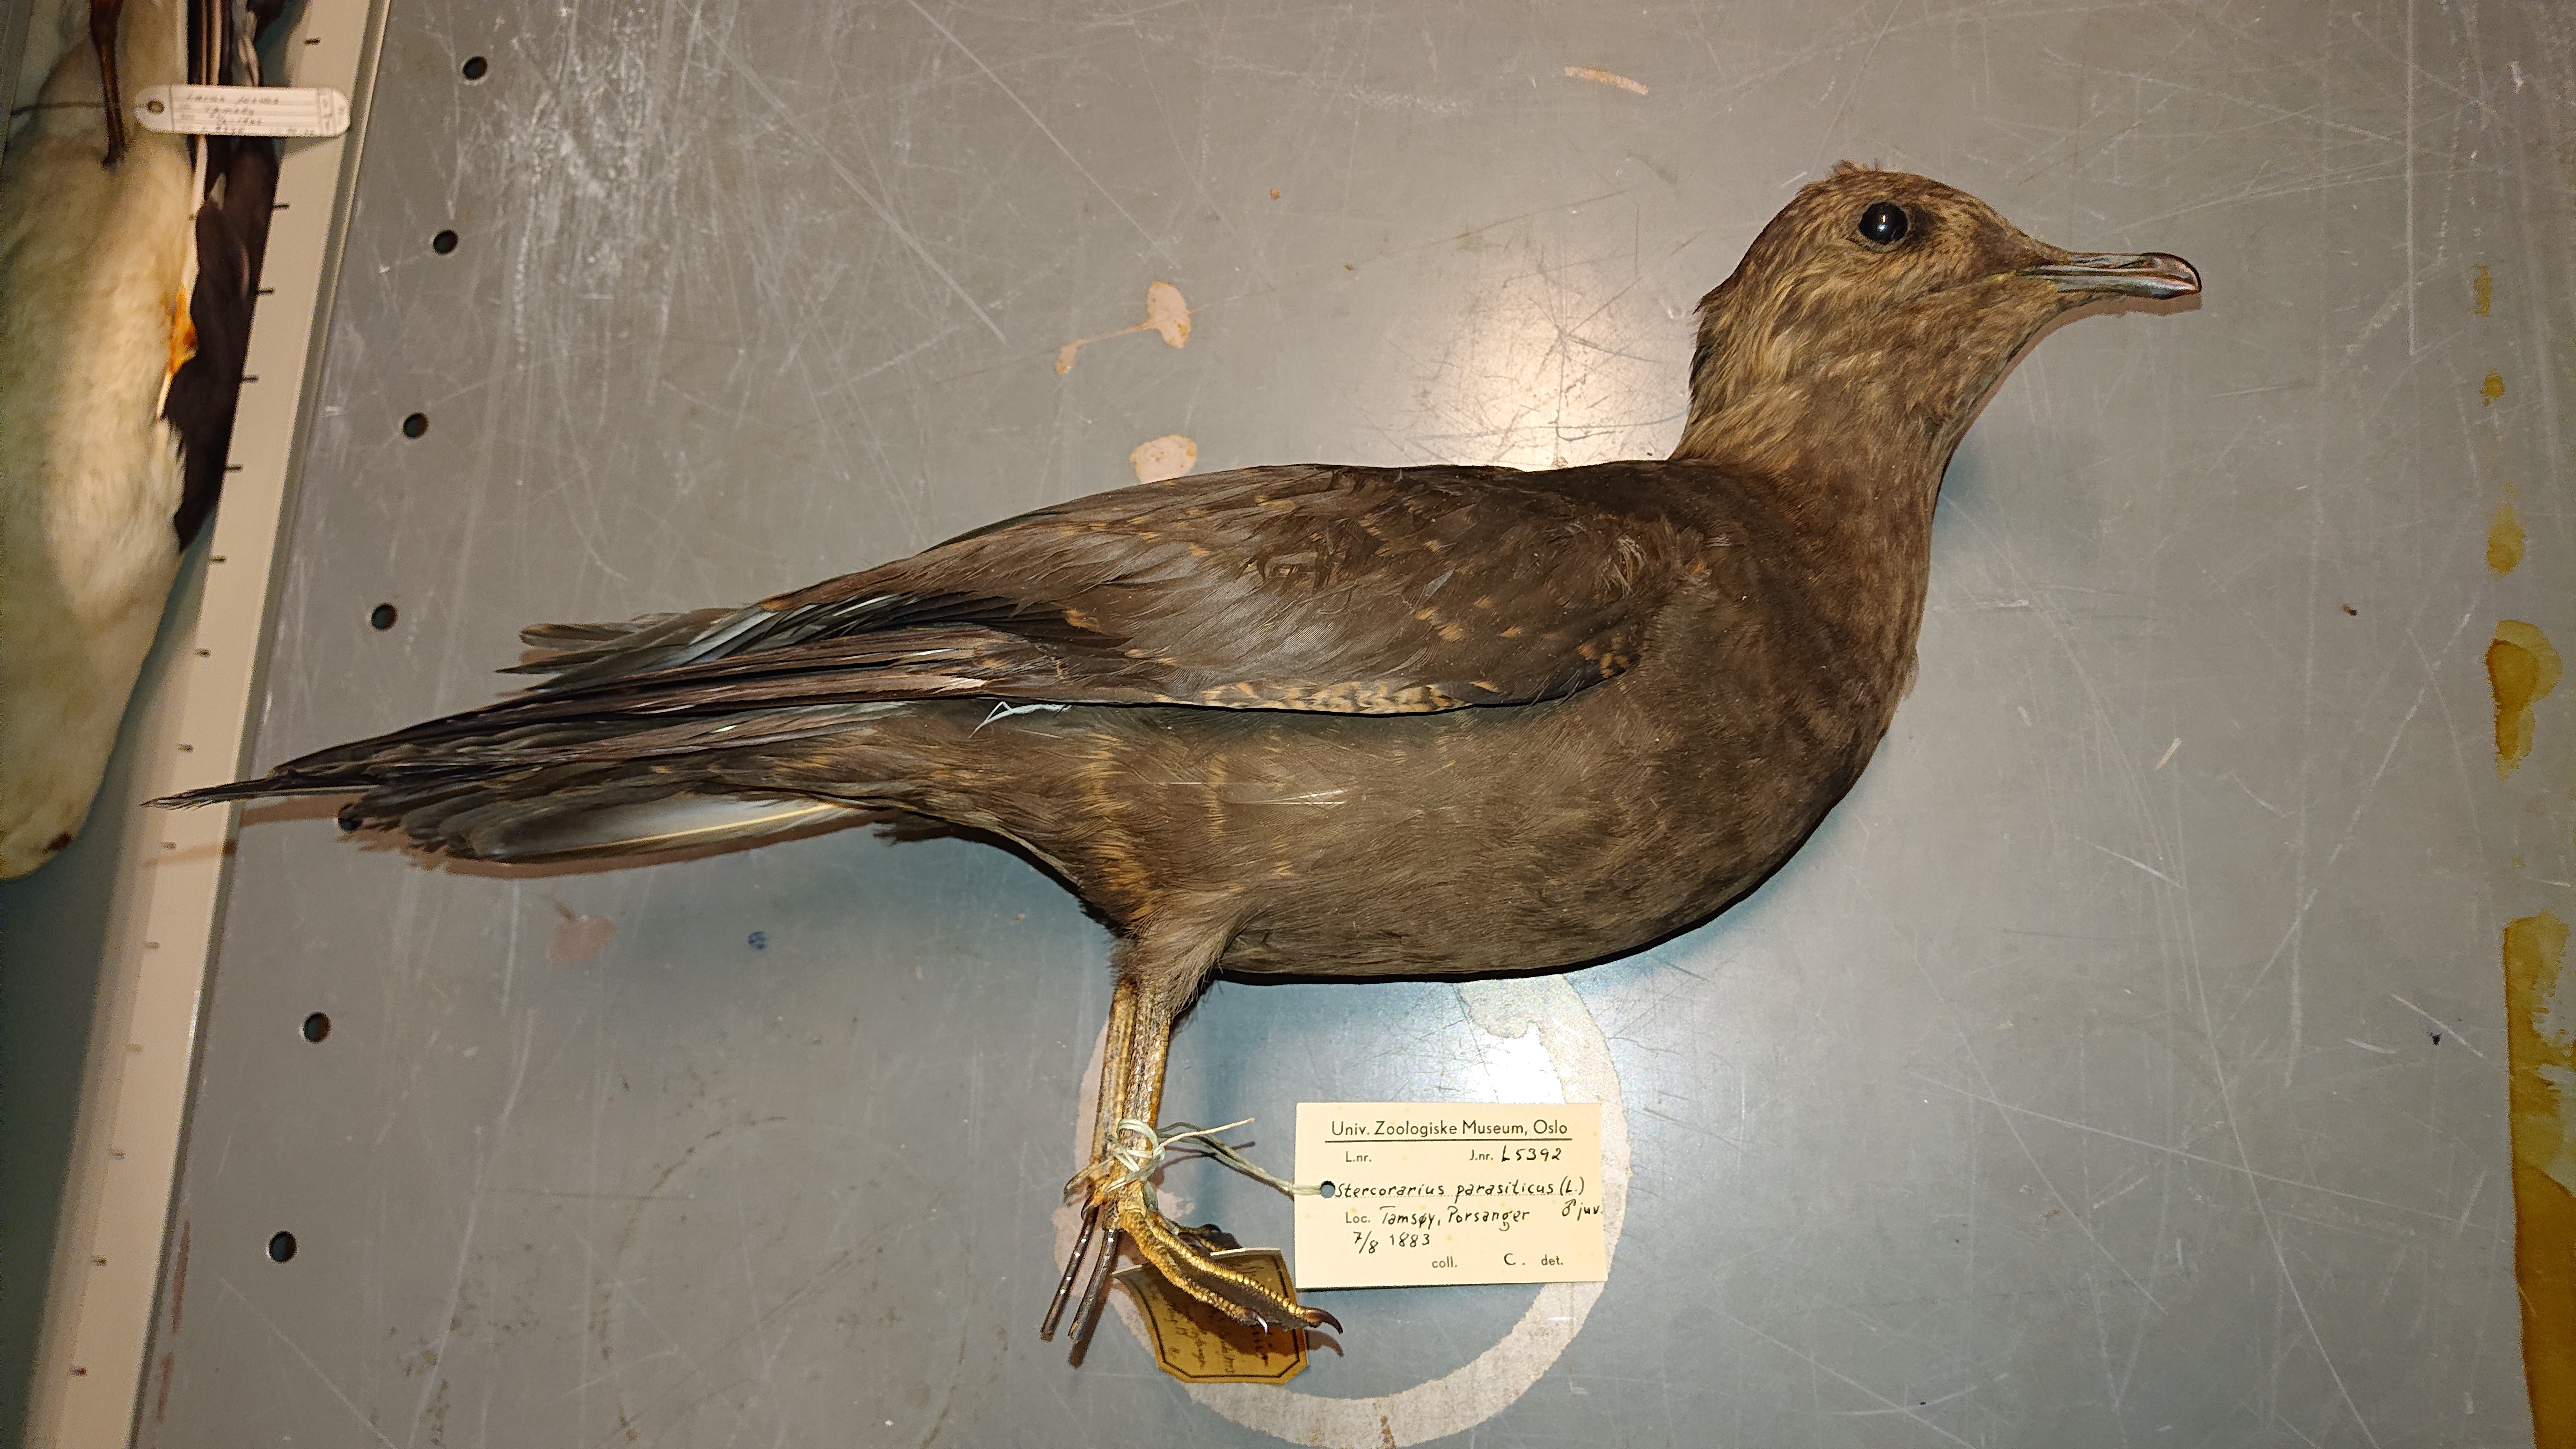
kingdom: Animalia
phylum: Chordata
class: Aves
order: Charadriiformes
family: Stercorariidae
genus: Stercorarius
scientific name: Stercorarius parasiticus
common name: Parasitic jaeger
